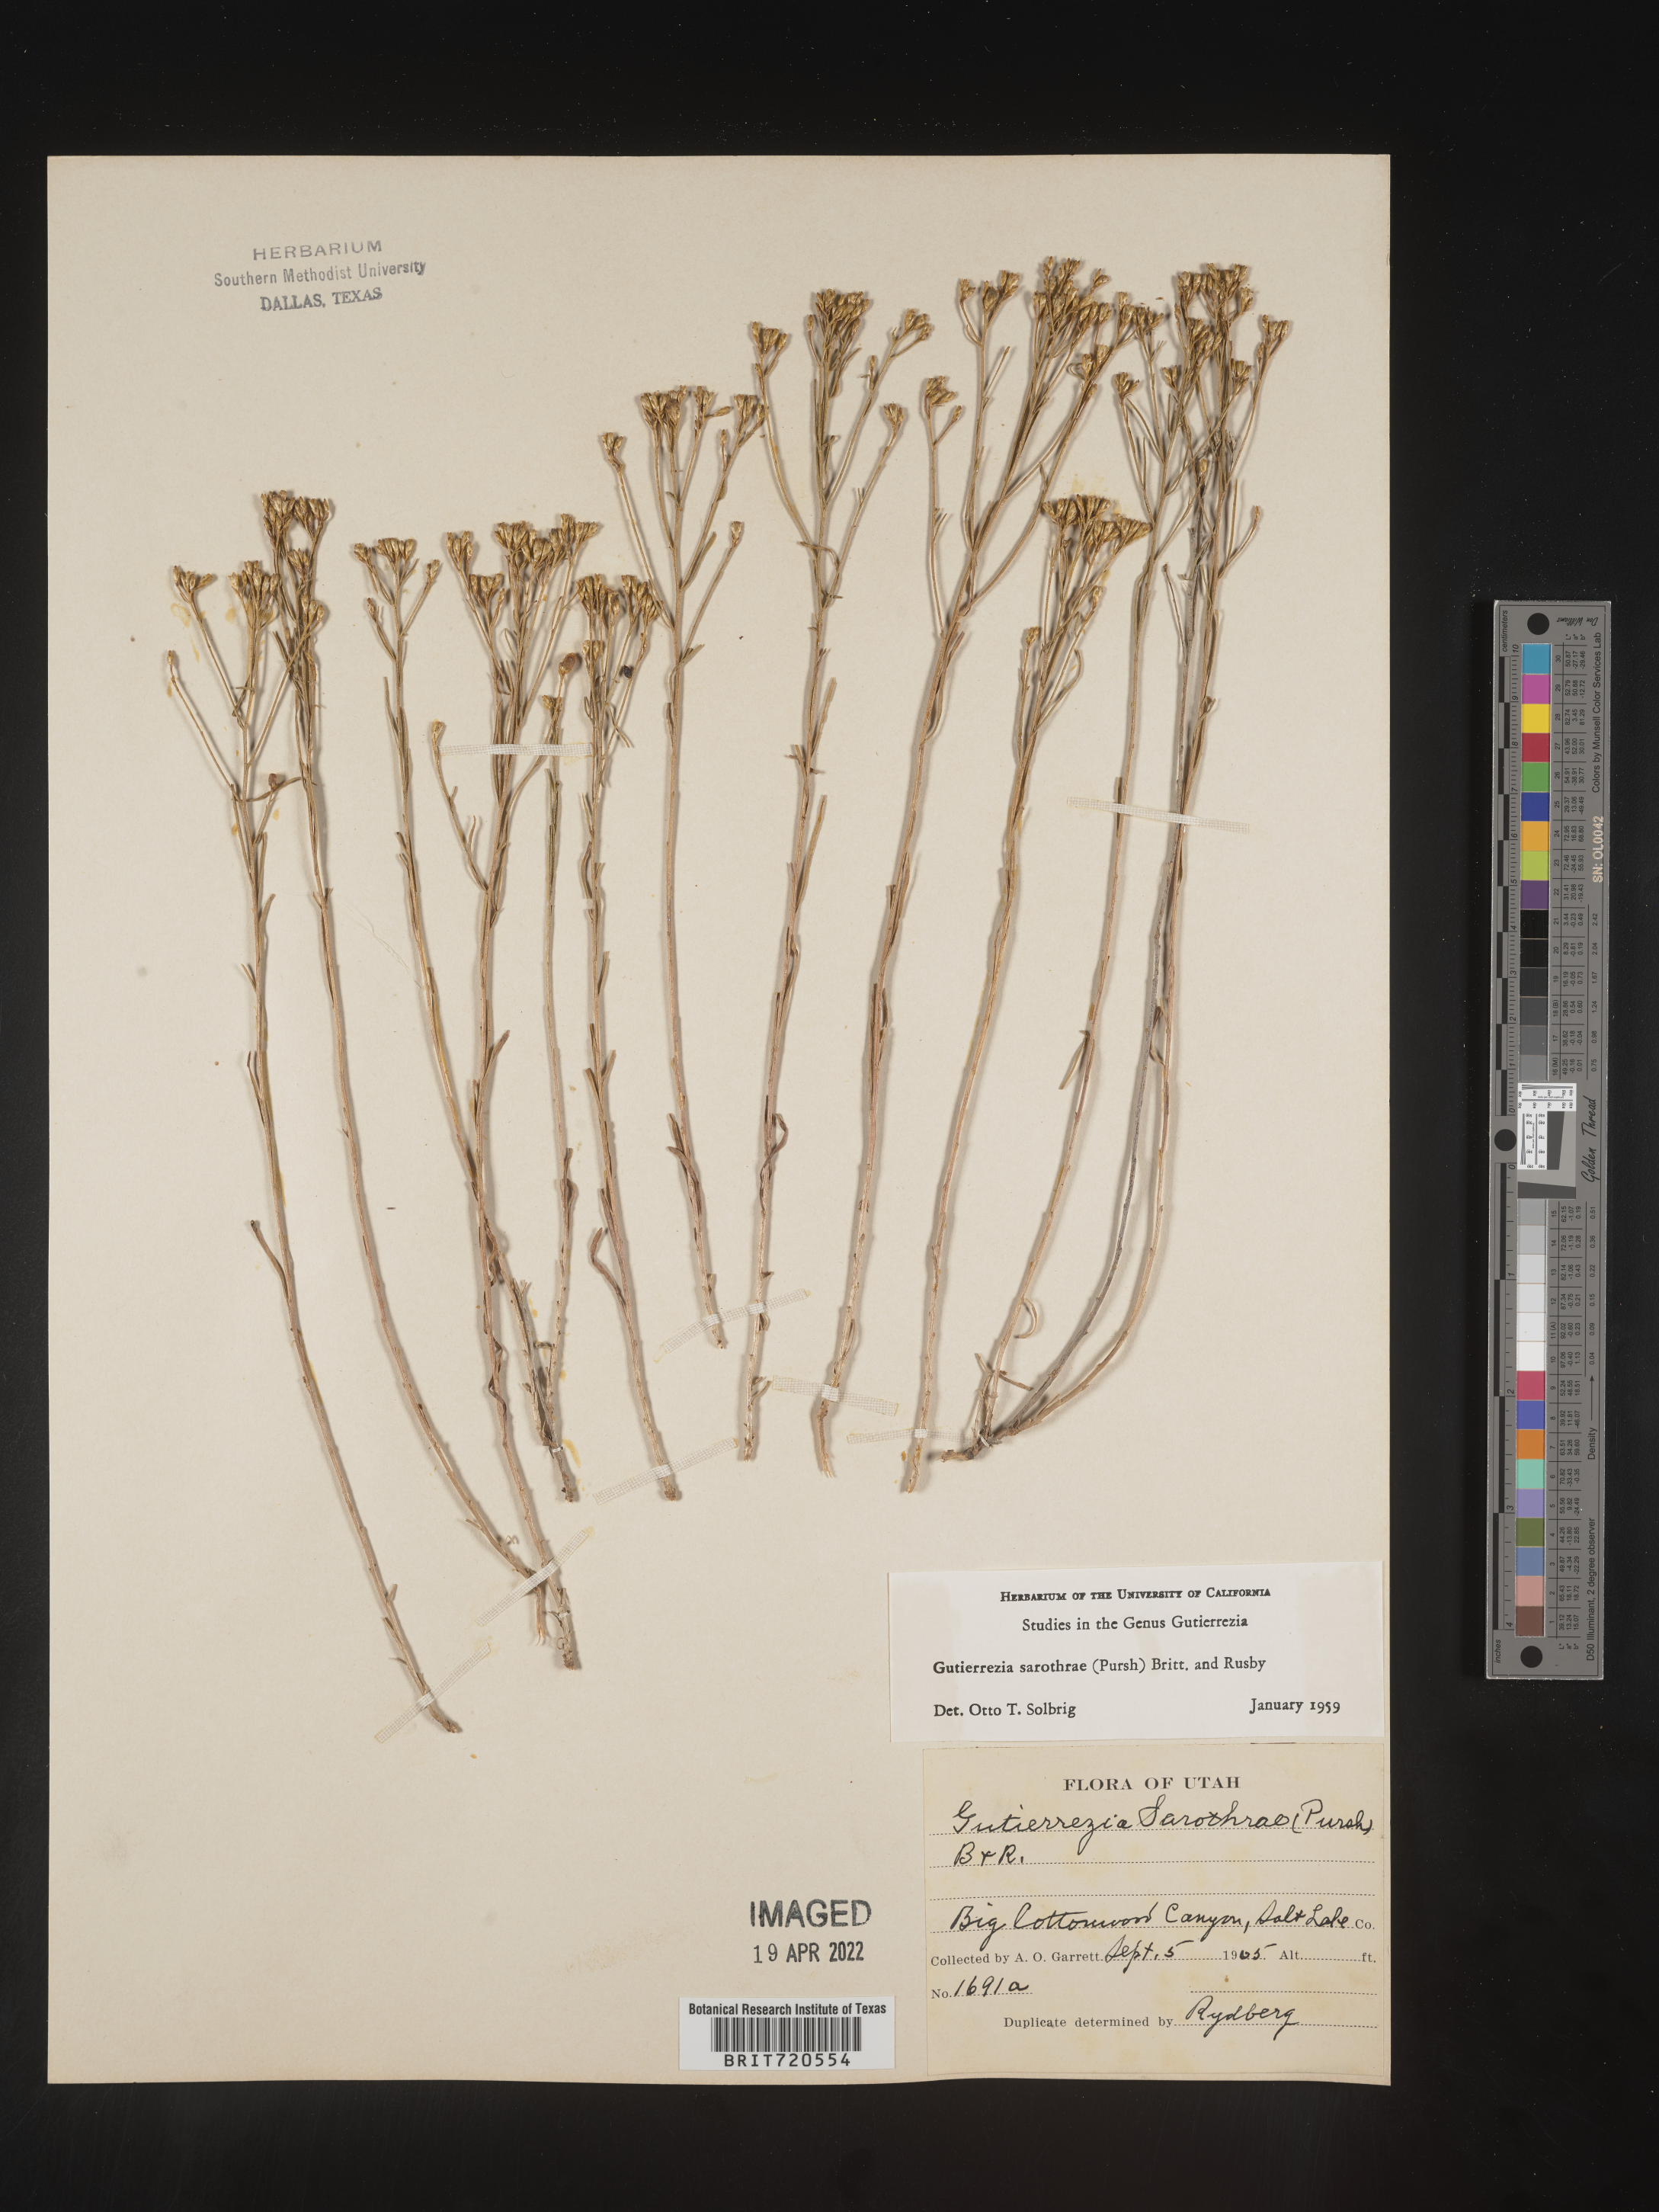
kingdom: Plantae
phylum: Tracheophyta
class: Magnoliopsida
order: Asterales
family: Asteraceae
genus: Gutierrezia
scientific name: Gutierrezia sarothrae
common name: Broom snakeweed
